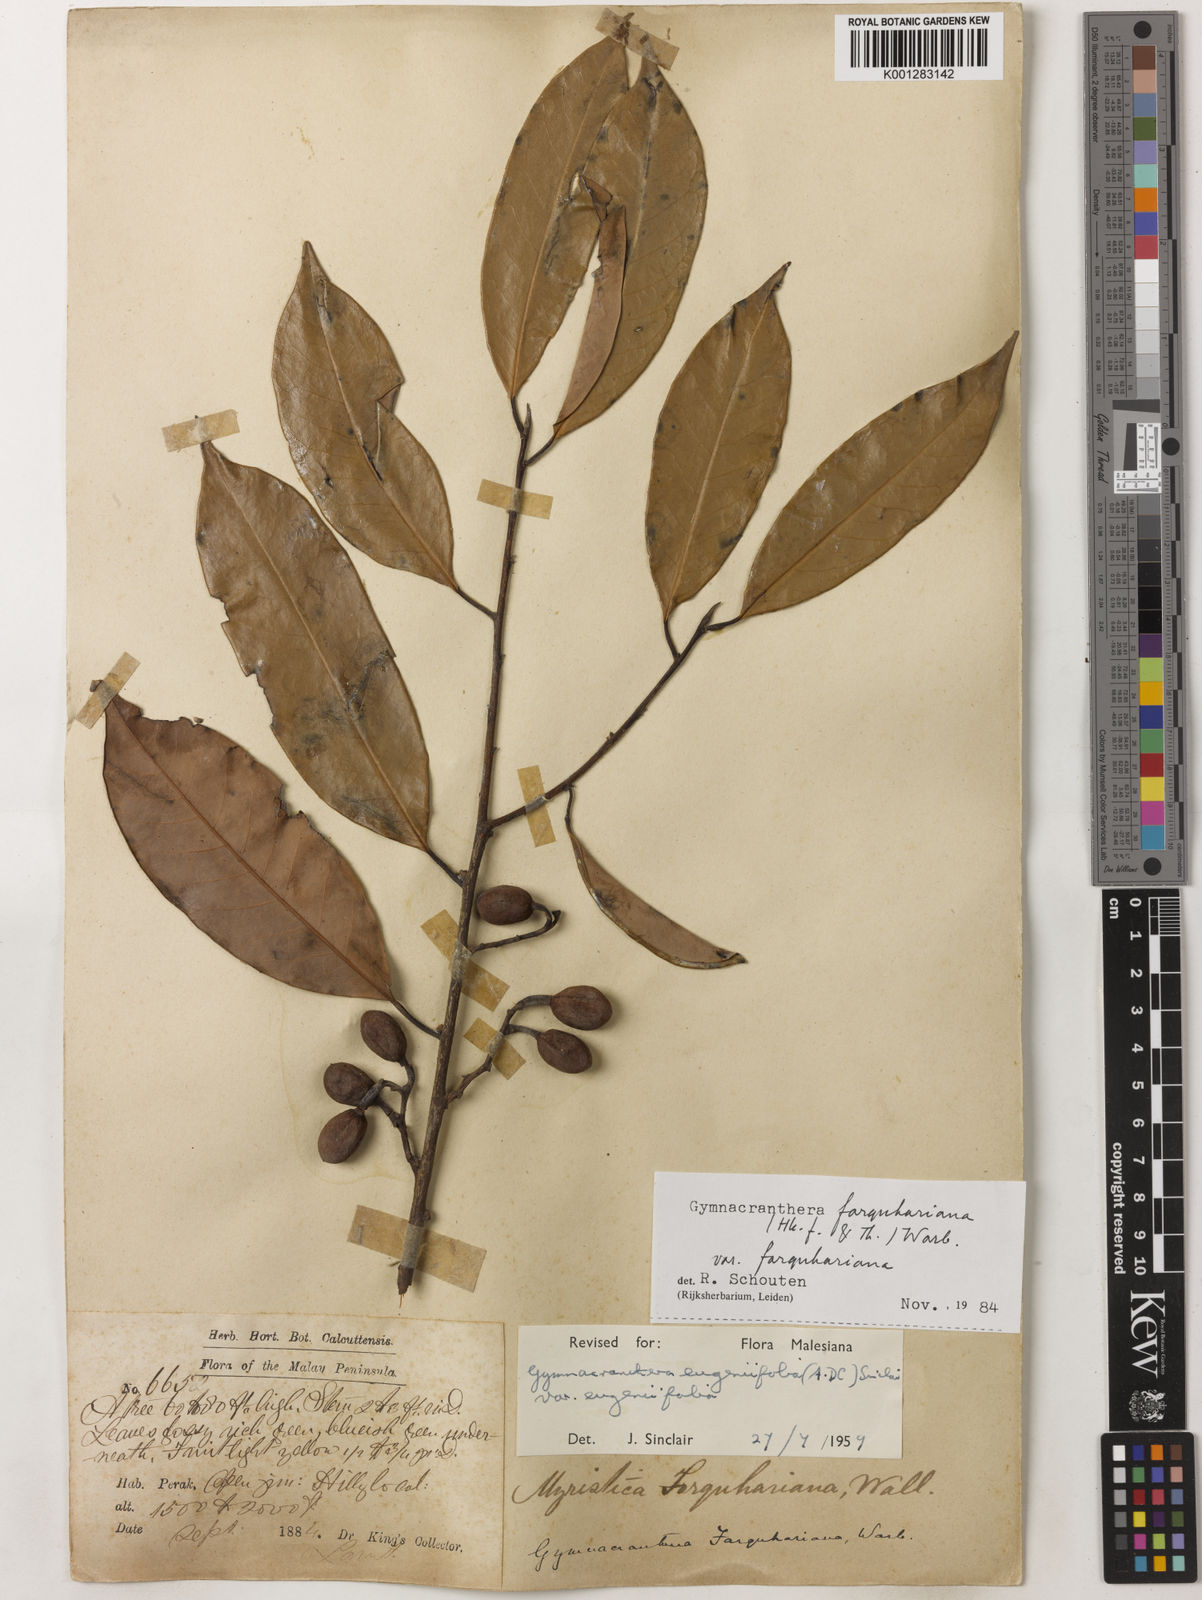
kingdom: Plantae
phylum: Tracheophyta
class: Magnoliopsida
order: Magnoliales
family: Myristicaceae
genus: Gymnacranthera
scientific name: Gymnacranthera farquhariana
